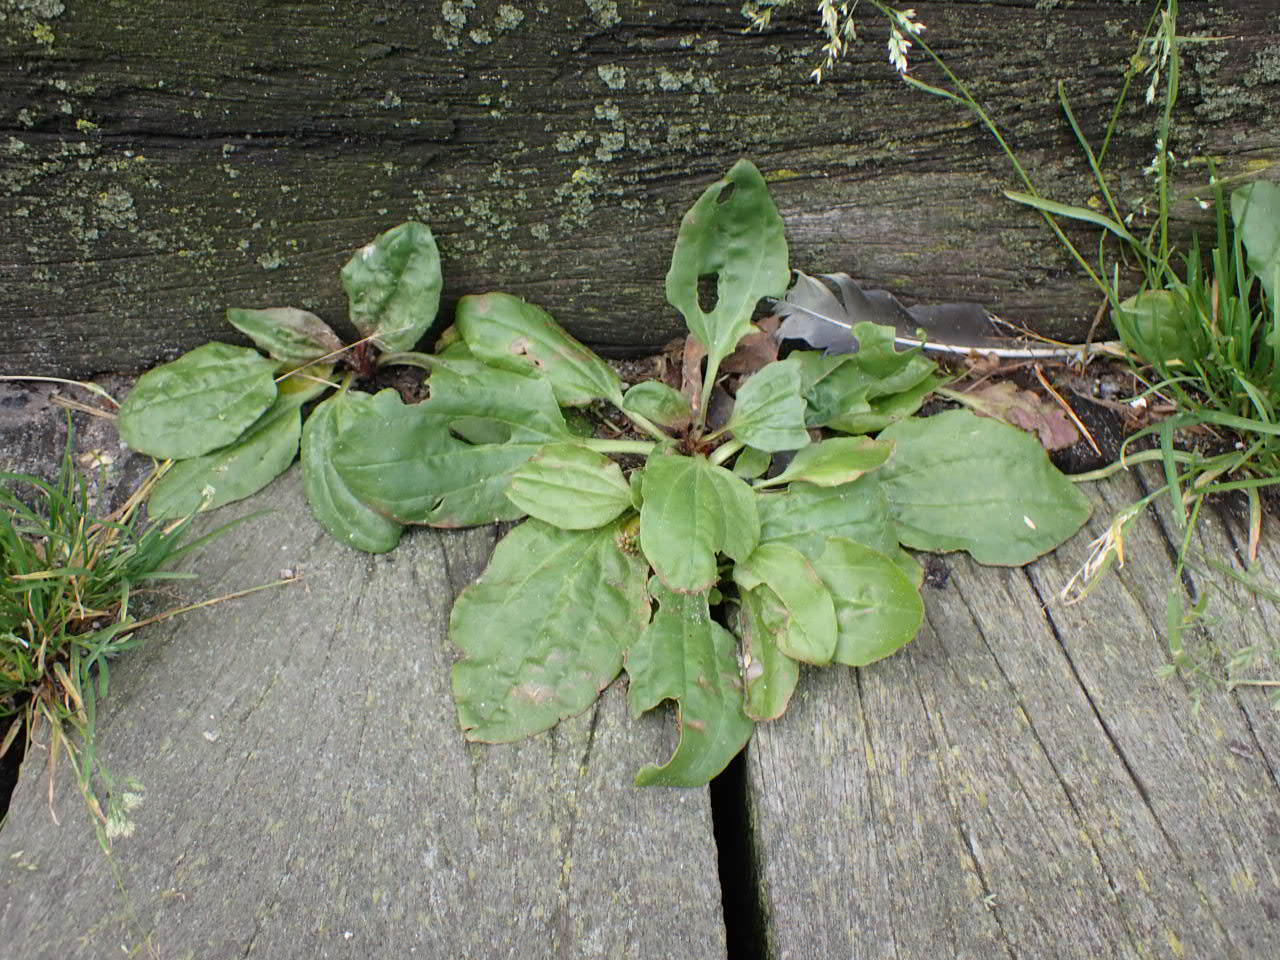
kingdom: Plantae
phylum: Tracheophyta
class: Magnoliopsida
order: Lamiales
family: Plantaginaceae
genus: Plantago
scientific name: Plantago major
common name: Glat vejbred
